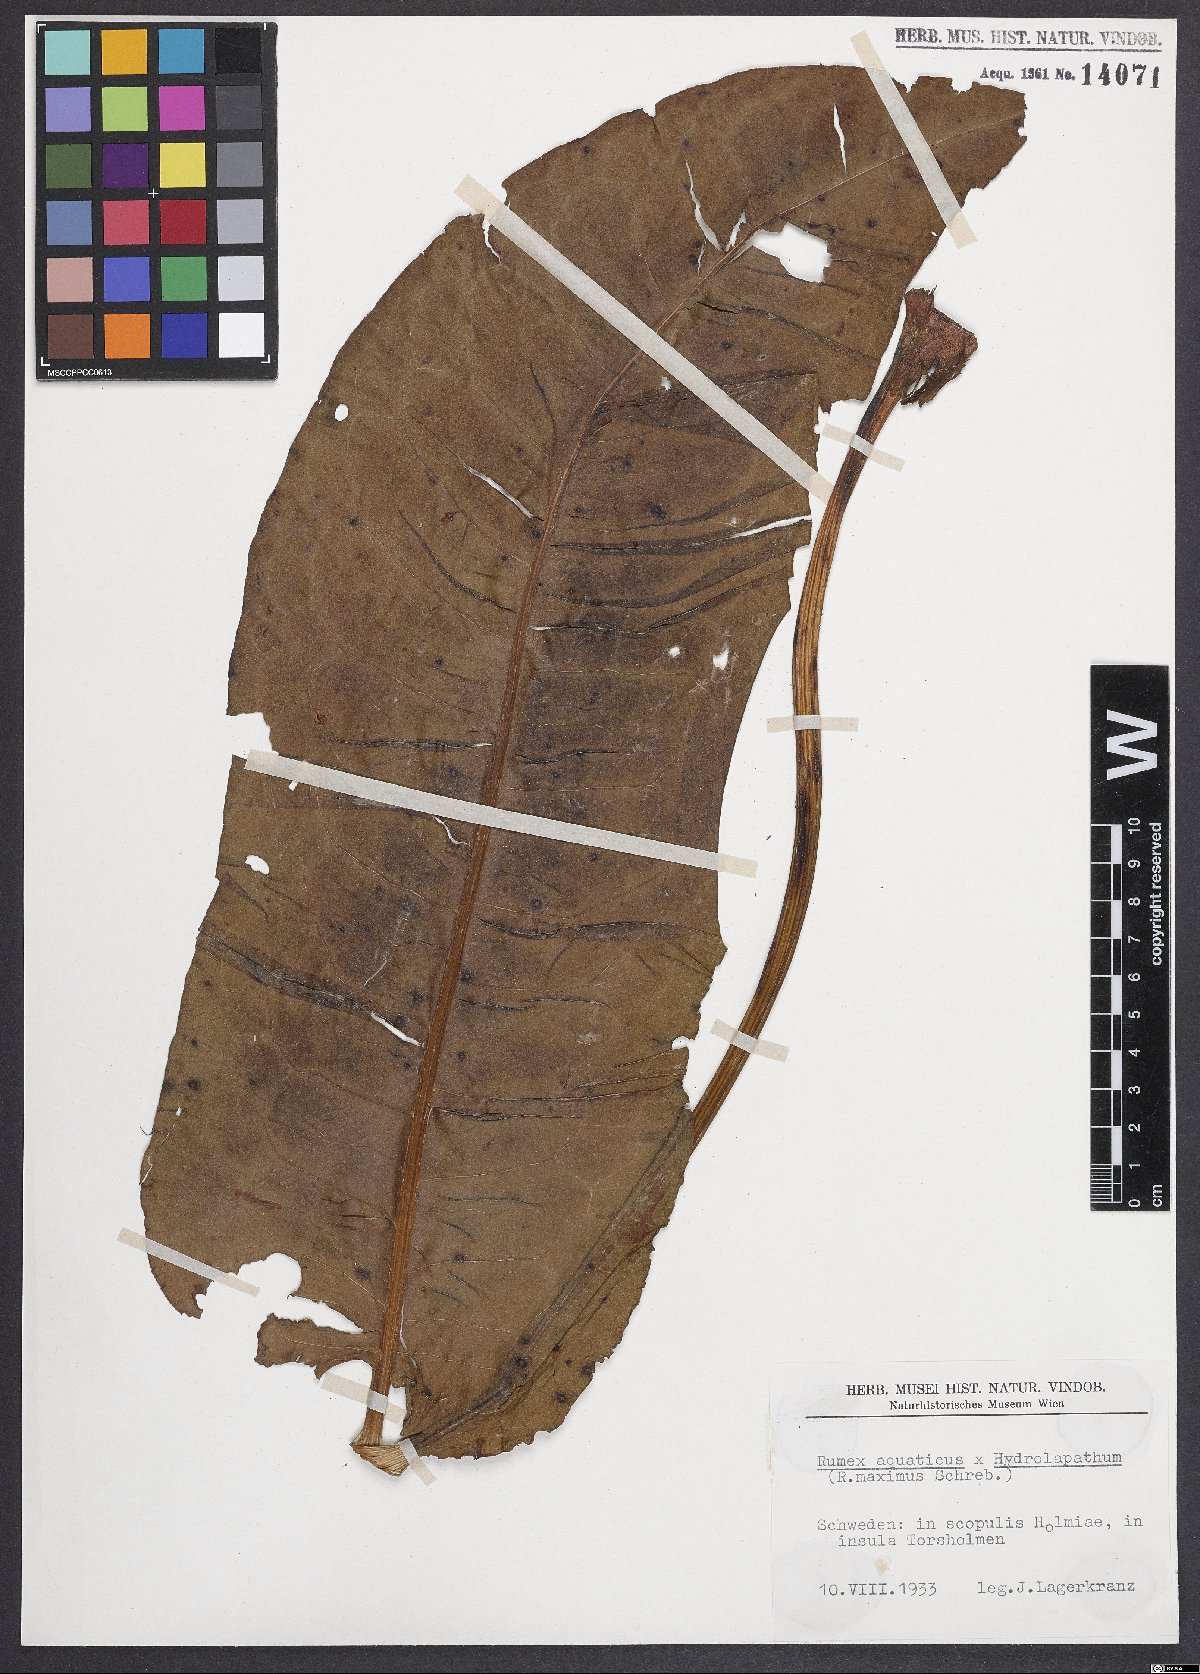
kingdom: Plantae
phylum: Tracheophyta
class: Magnoliopsida
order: Caryophyllales
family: Polygonaceae
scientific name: Polygonaceae
